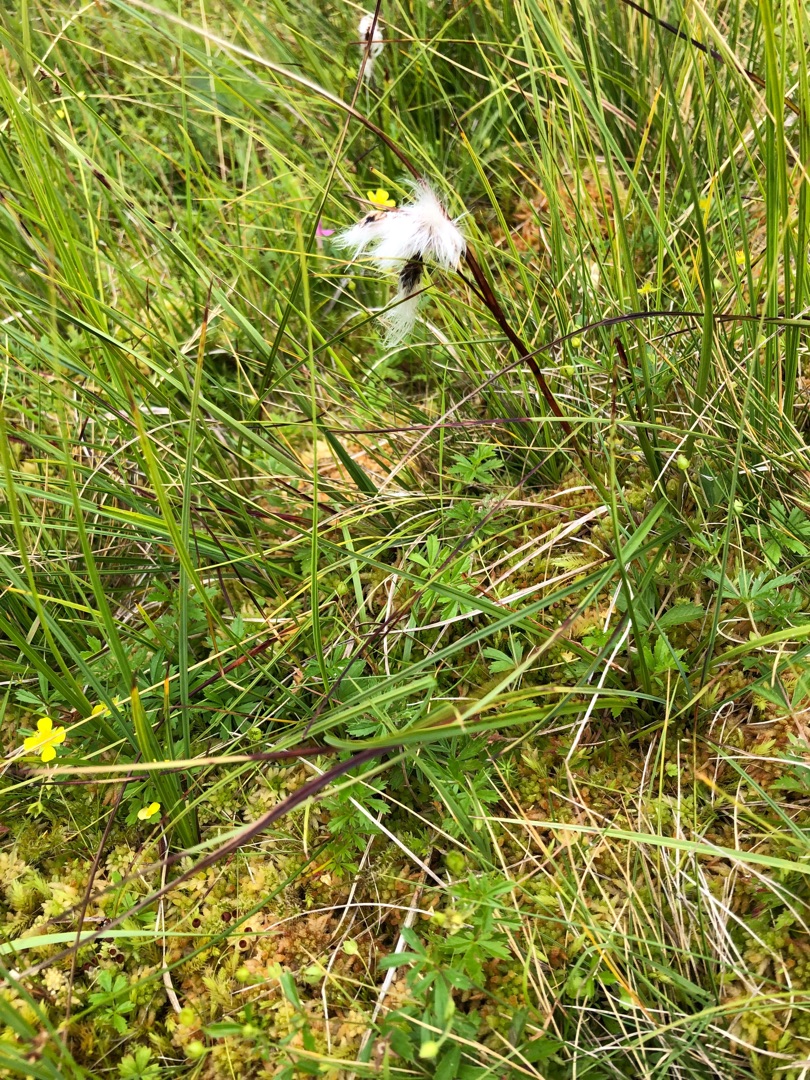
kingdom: Plantae
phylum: Tracheophyta
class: Liliopsida
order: Poales
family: Cyperaceae
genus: Eriophorum
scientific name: Eriophorum angustifolium
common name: Smalbladet kæruld
